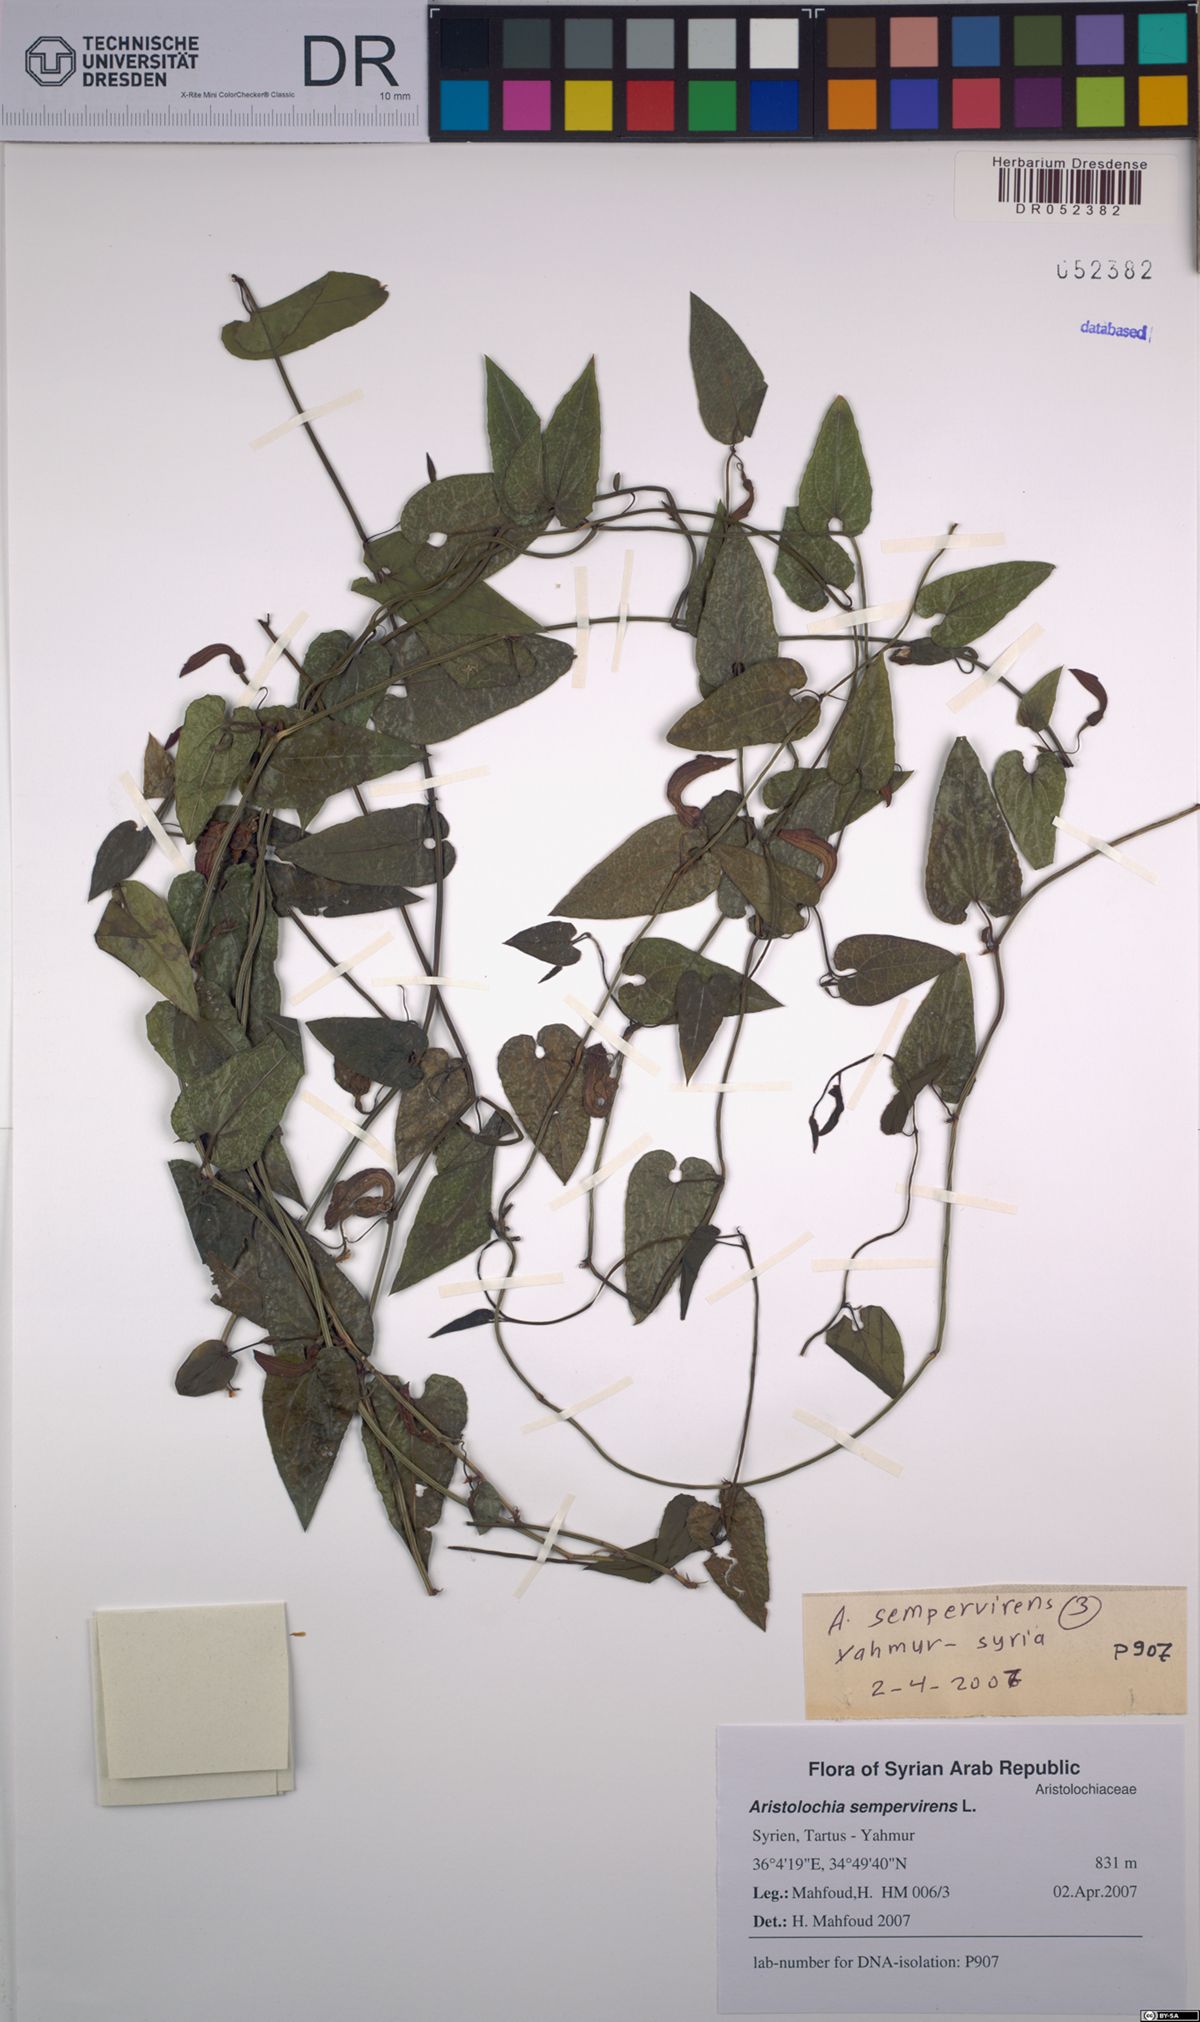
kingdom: Plantae
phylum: Tracheophyta
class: Magnoliopsida
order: Piperales
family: Aristolochiaceae
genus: Aristolochia
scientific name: Aristolochia sempervirens
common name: Long birthwort
